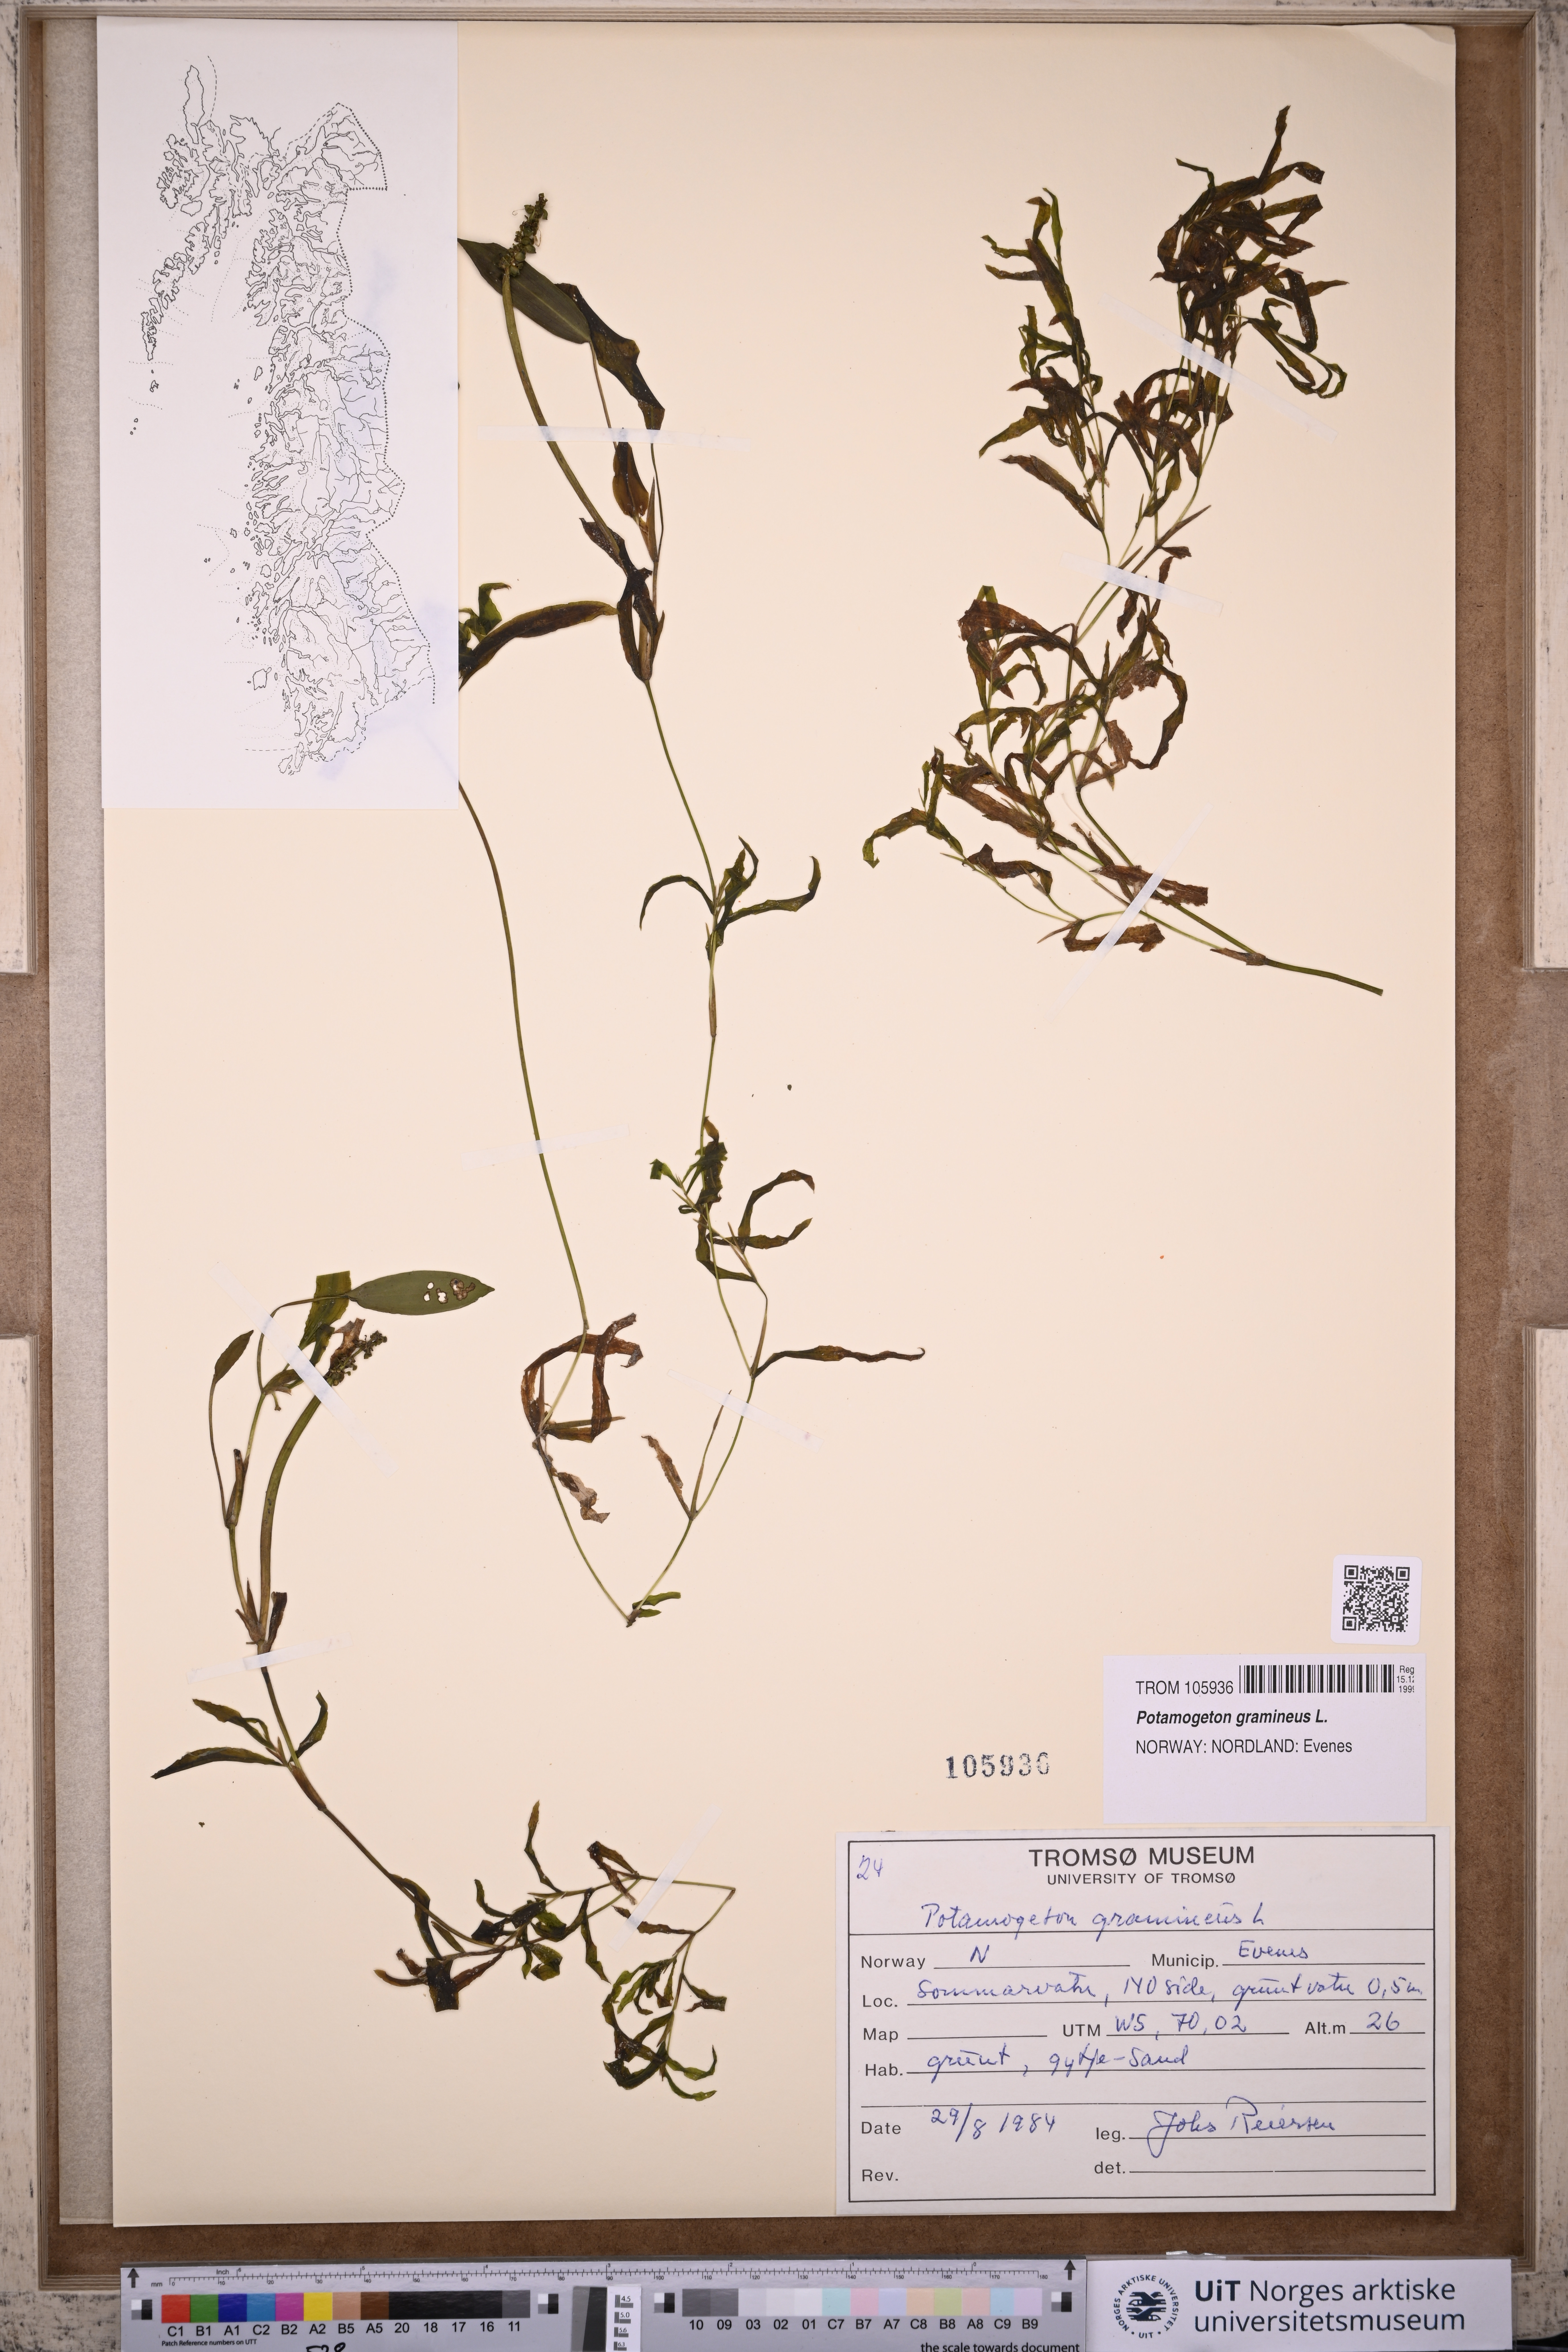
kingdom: Plantae
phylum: Tracheophyta
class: Liliopsida
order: Alismatales
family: Potamogetonaceae
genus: Potamogeton
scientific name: Potamogeton gramineus
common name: Various-leaved pondweed
